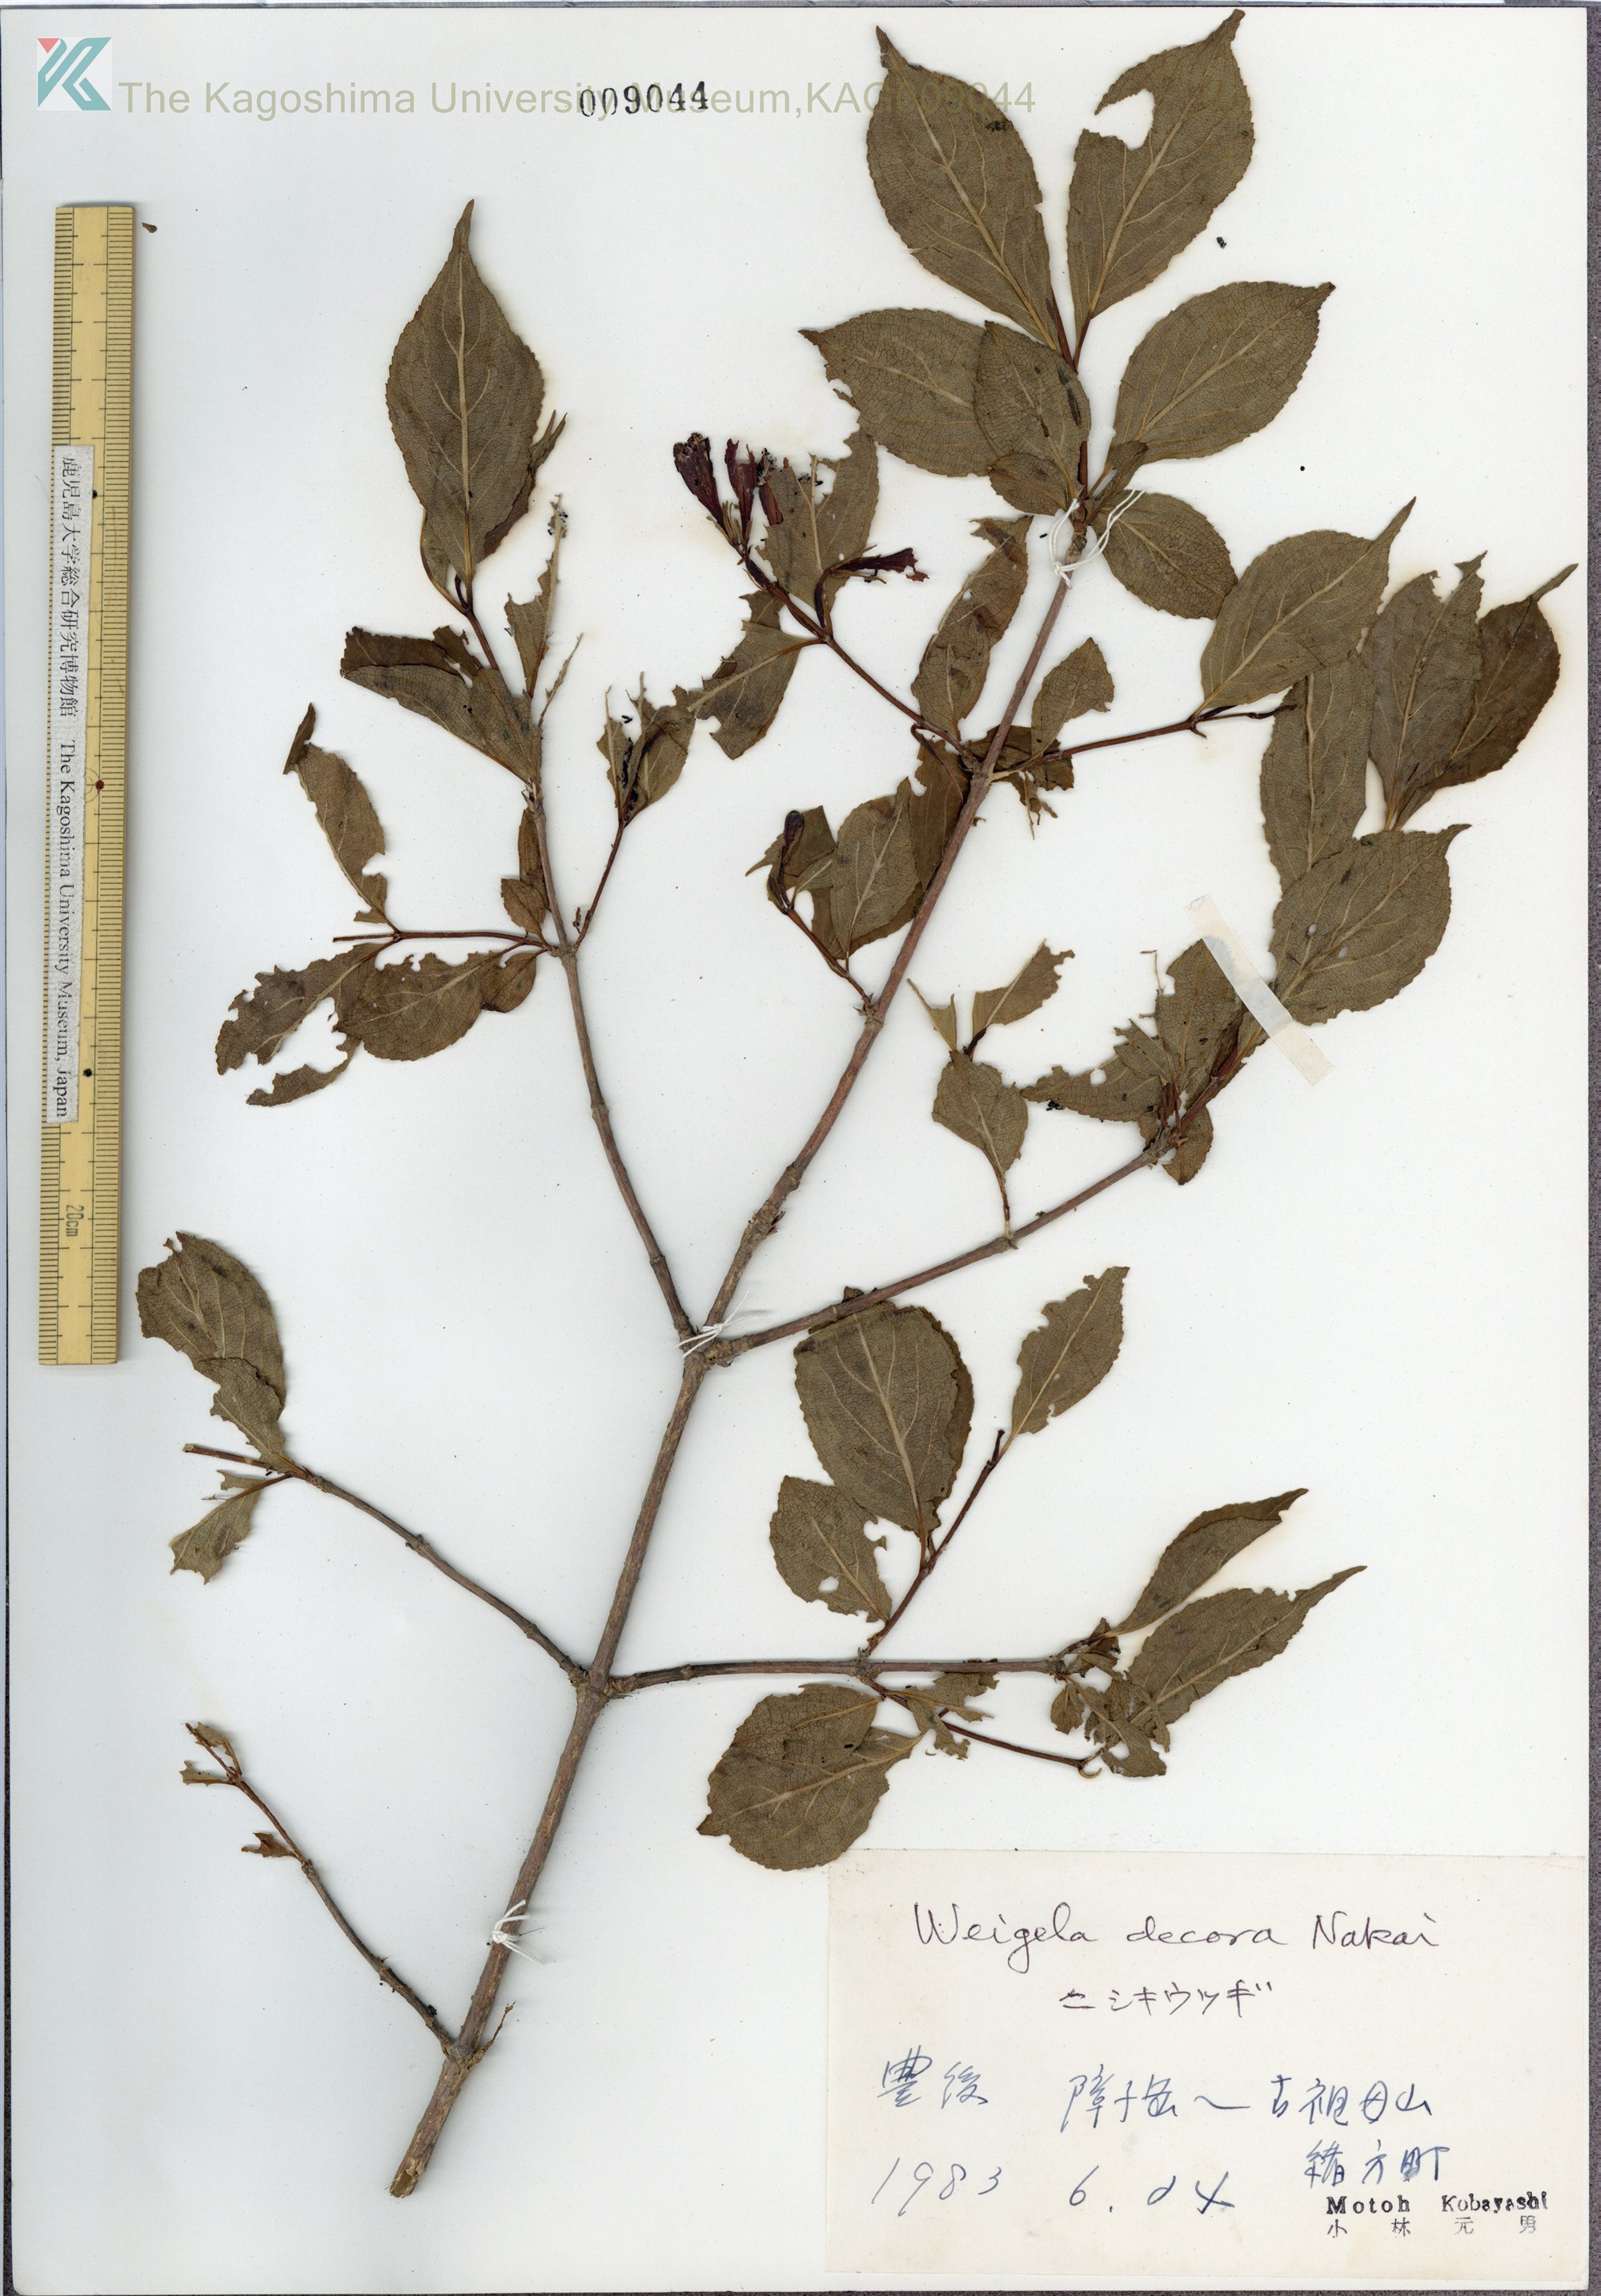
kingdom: Plantae
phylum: Tracheophyta
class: Magnoliopsida
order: Dipsacales
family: Caprifoliaceae
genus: Weigela
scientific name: Weigela decora
